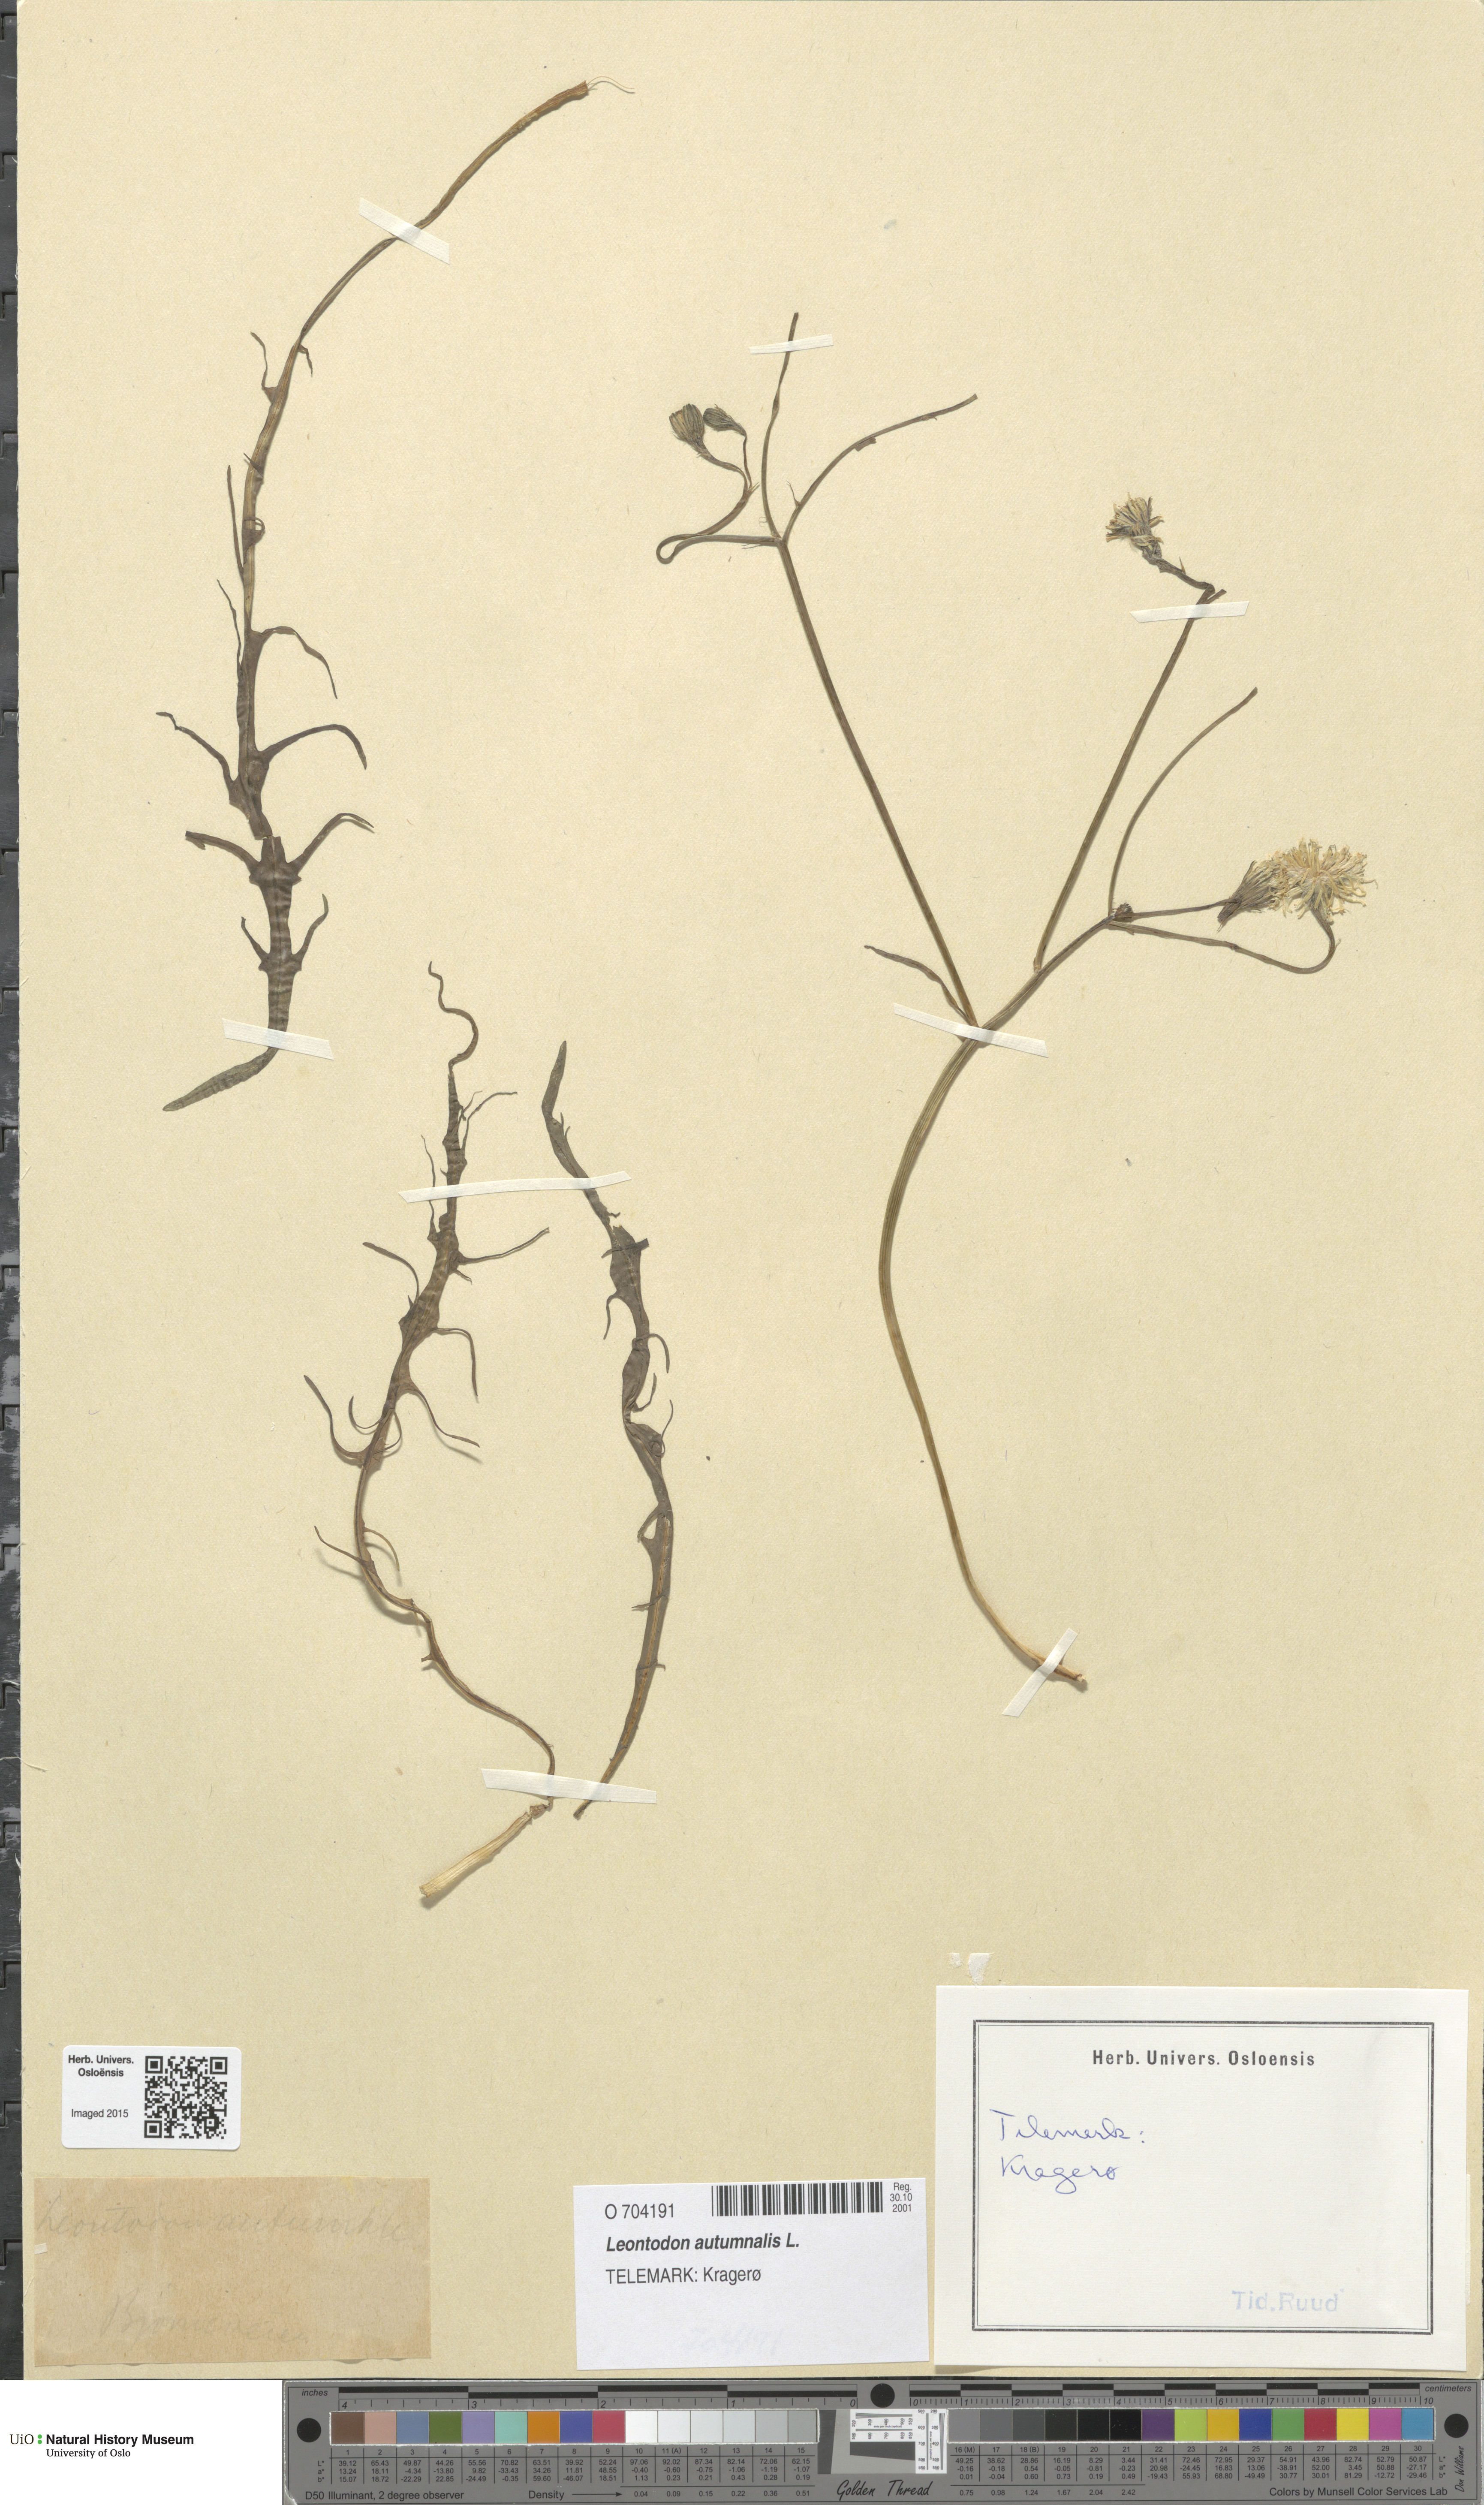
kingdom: Plantae
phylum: Tracheophyta
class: Magnoliopsida
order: Asterales
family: Asteraceae
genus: Scorzoneroides
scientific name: Scorzoneroides autumnalis
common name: Autumn hawkbit
